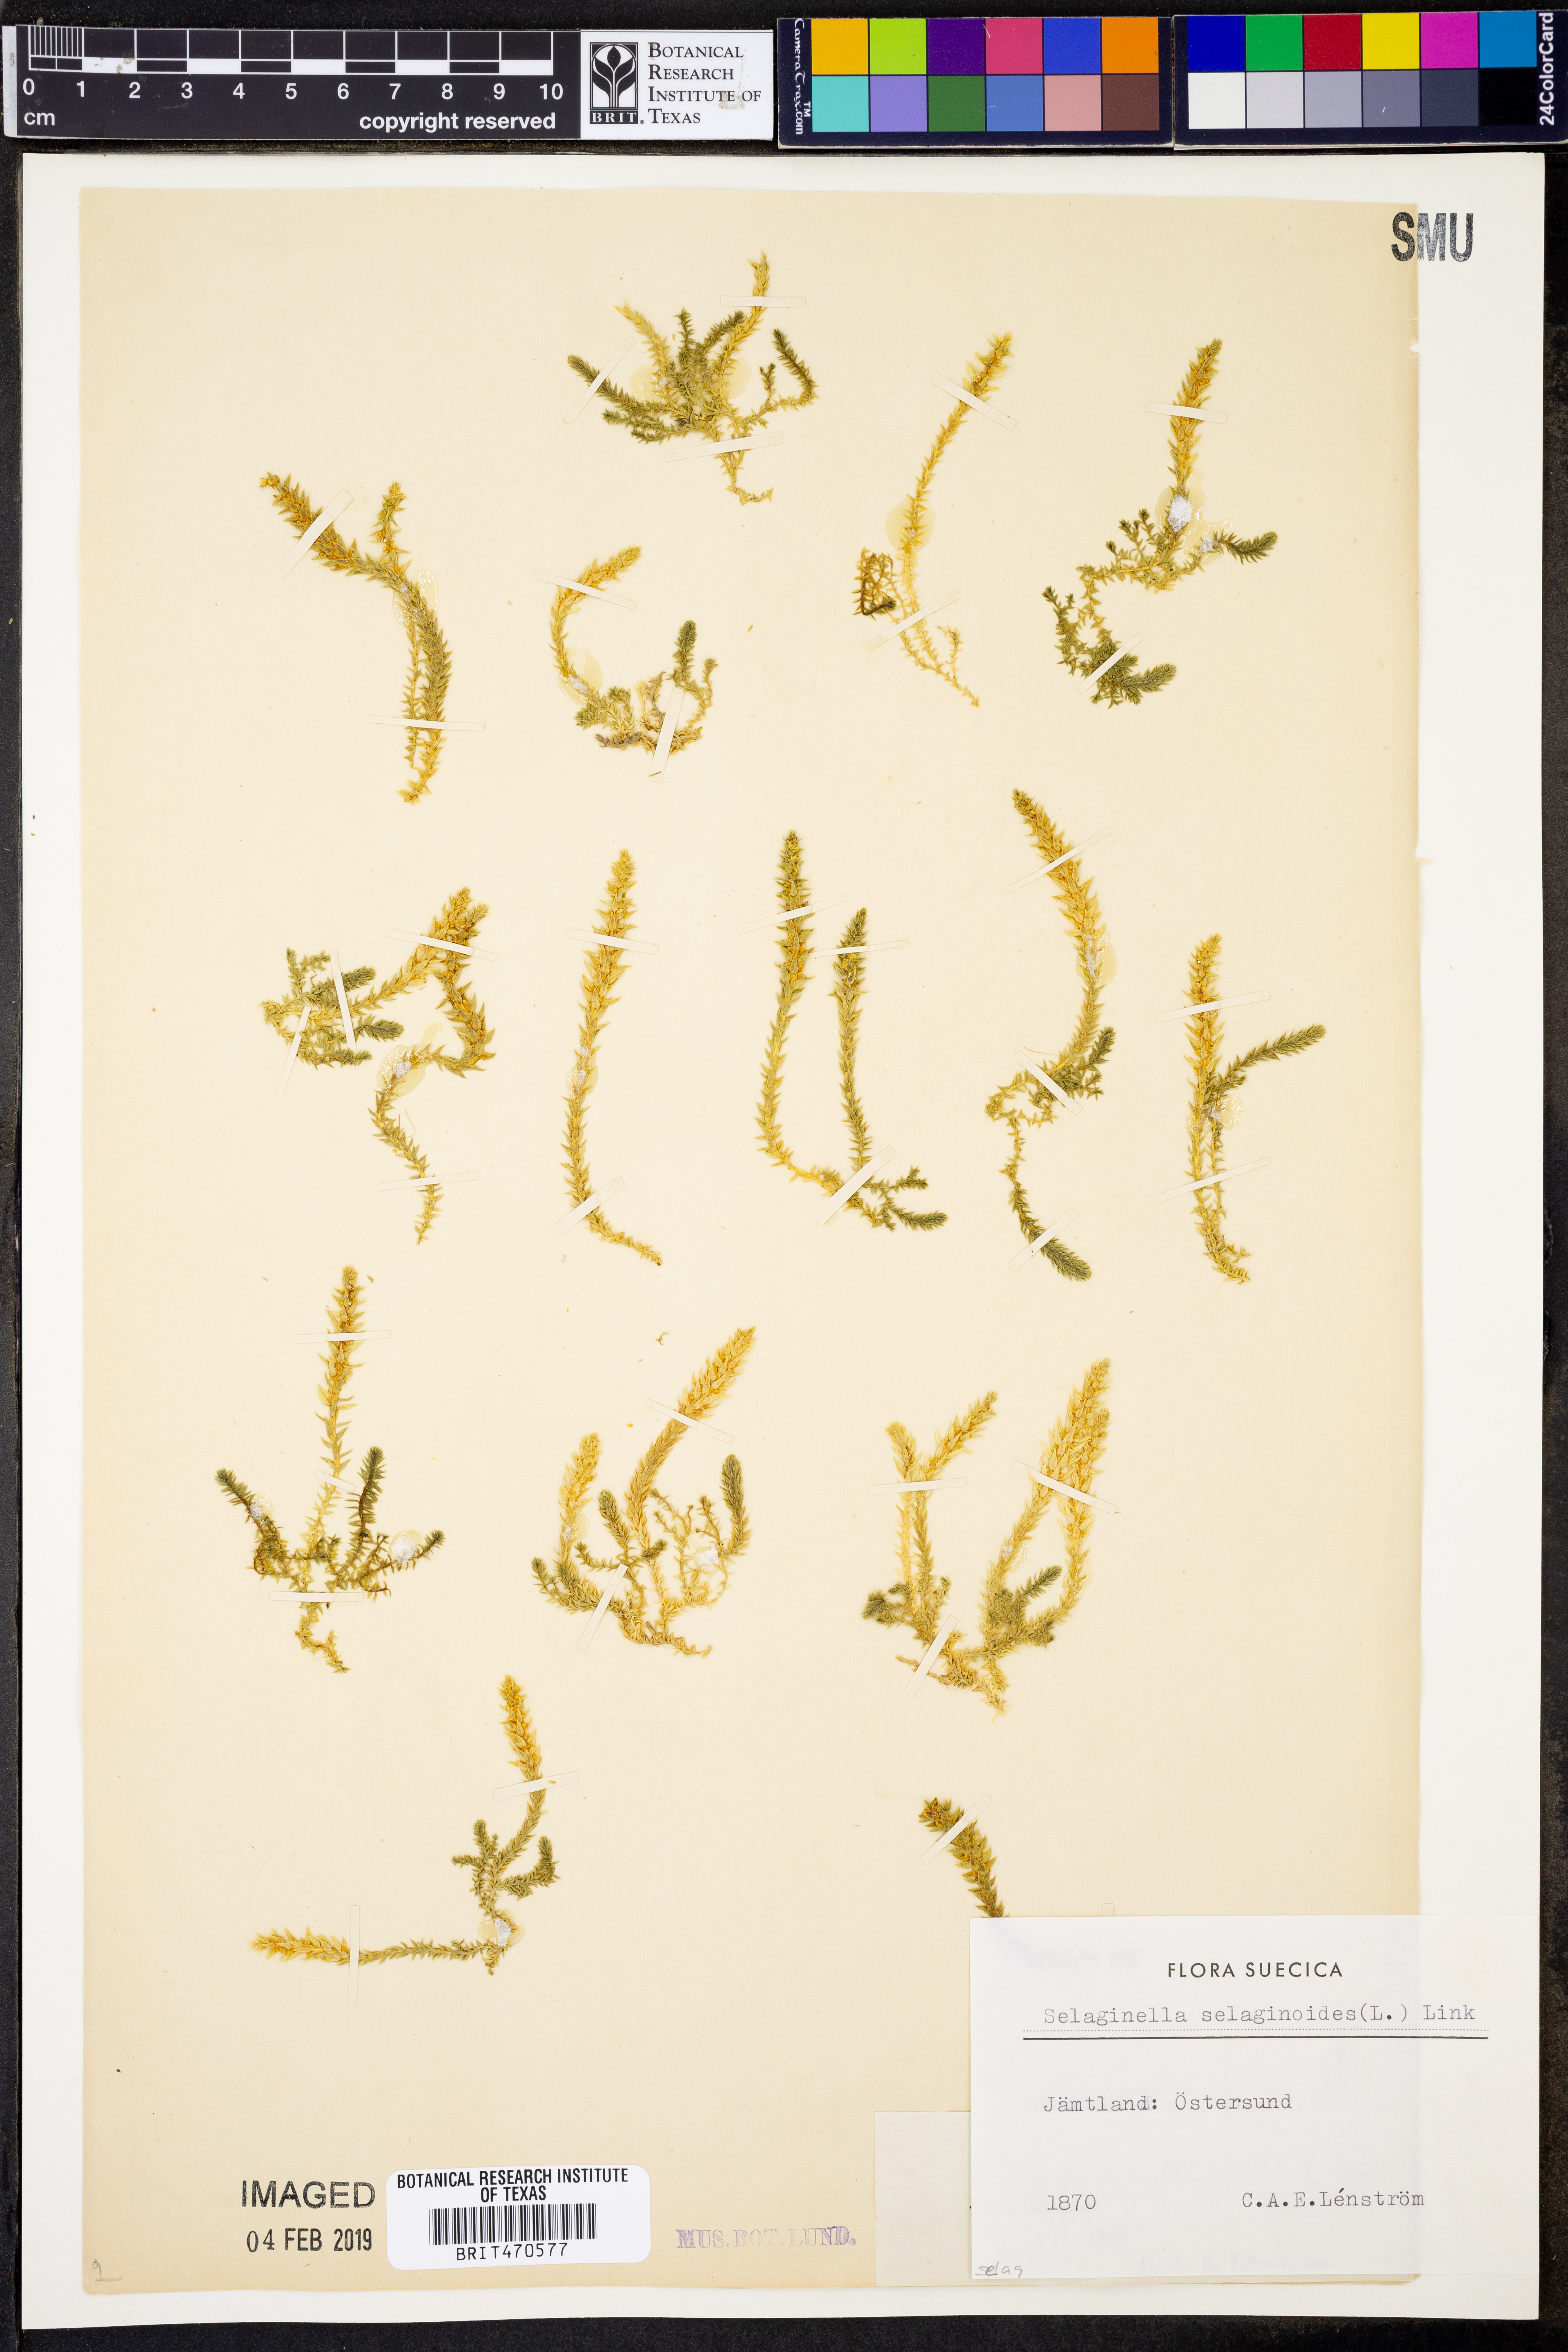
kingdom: Plantae
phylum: Tracheophyta
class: Lycopodiopsida
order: Selaginellales
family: Selaginellaceae
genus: Selaginella
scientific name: Selaginella selaginoides
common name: Prickly mountain-moss
